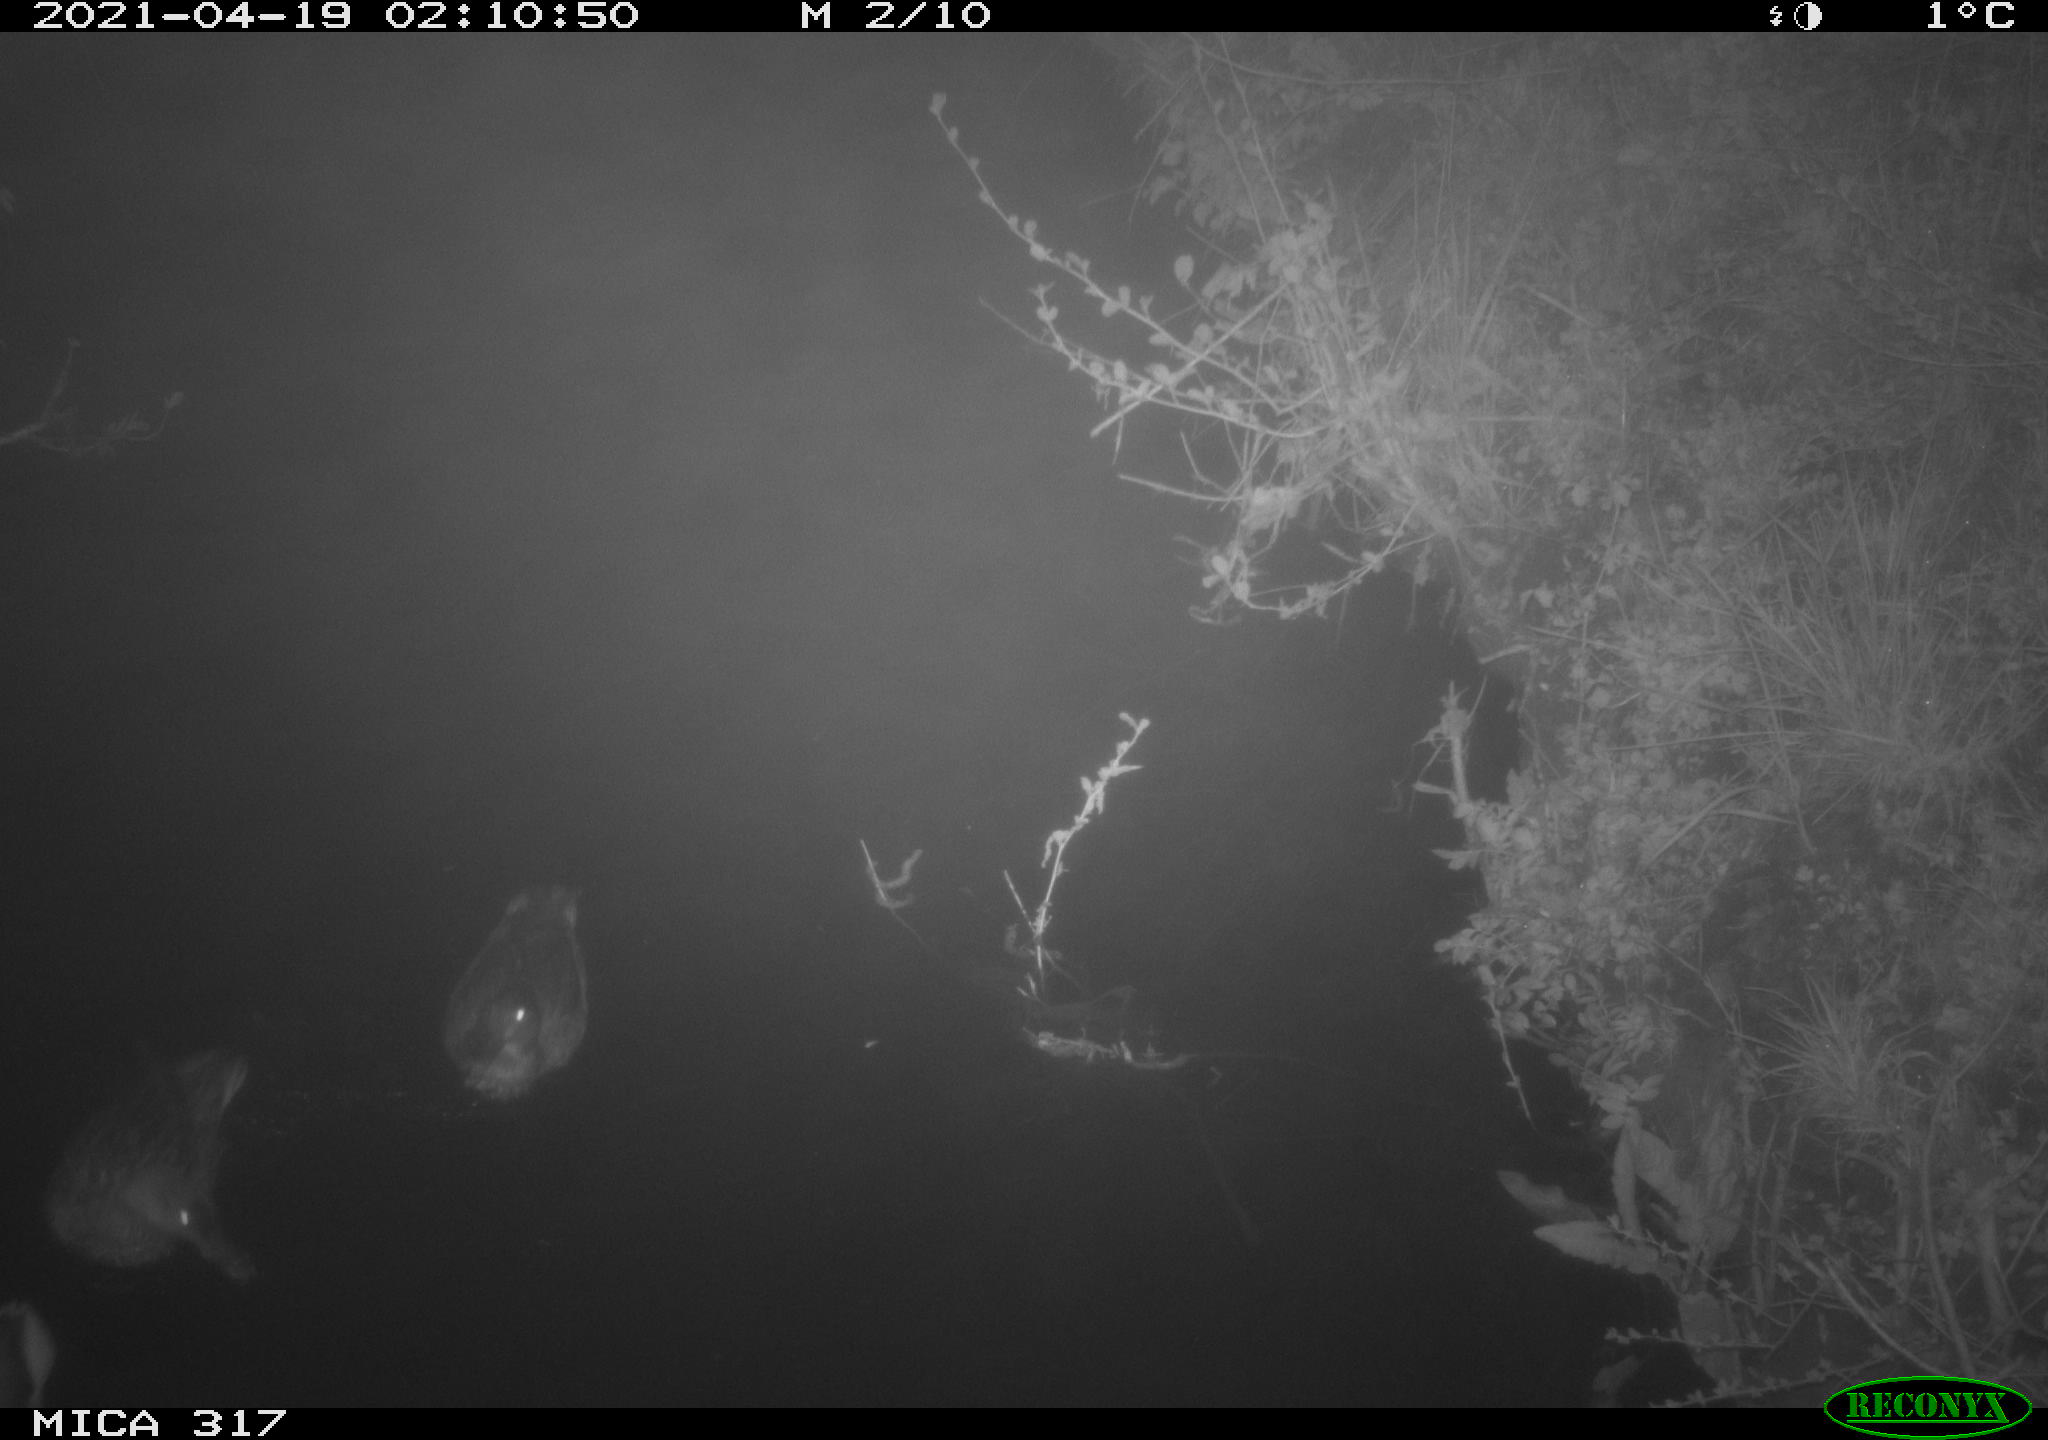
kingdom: Animalia
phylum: Chordata
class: Aves
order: Anseriformes
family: Anatidae
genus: Anas
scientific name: Anas platyrhynchos
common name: Mallard
